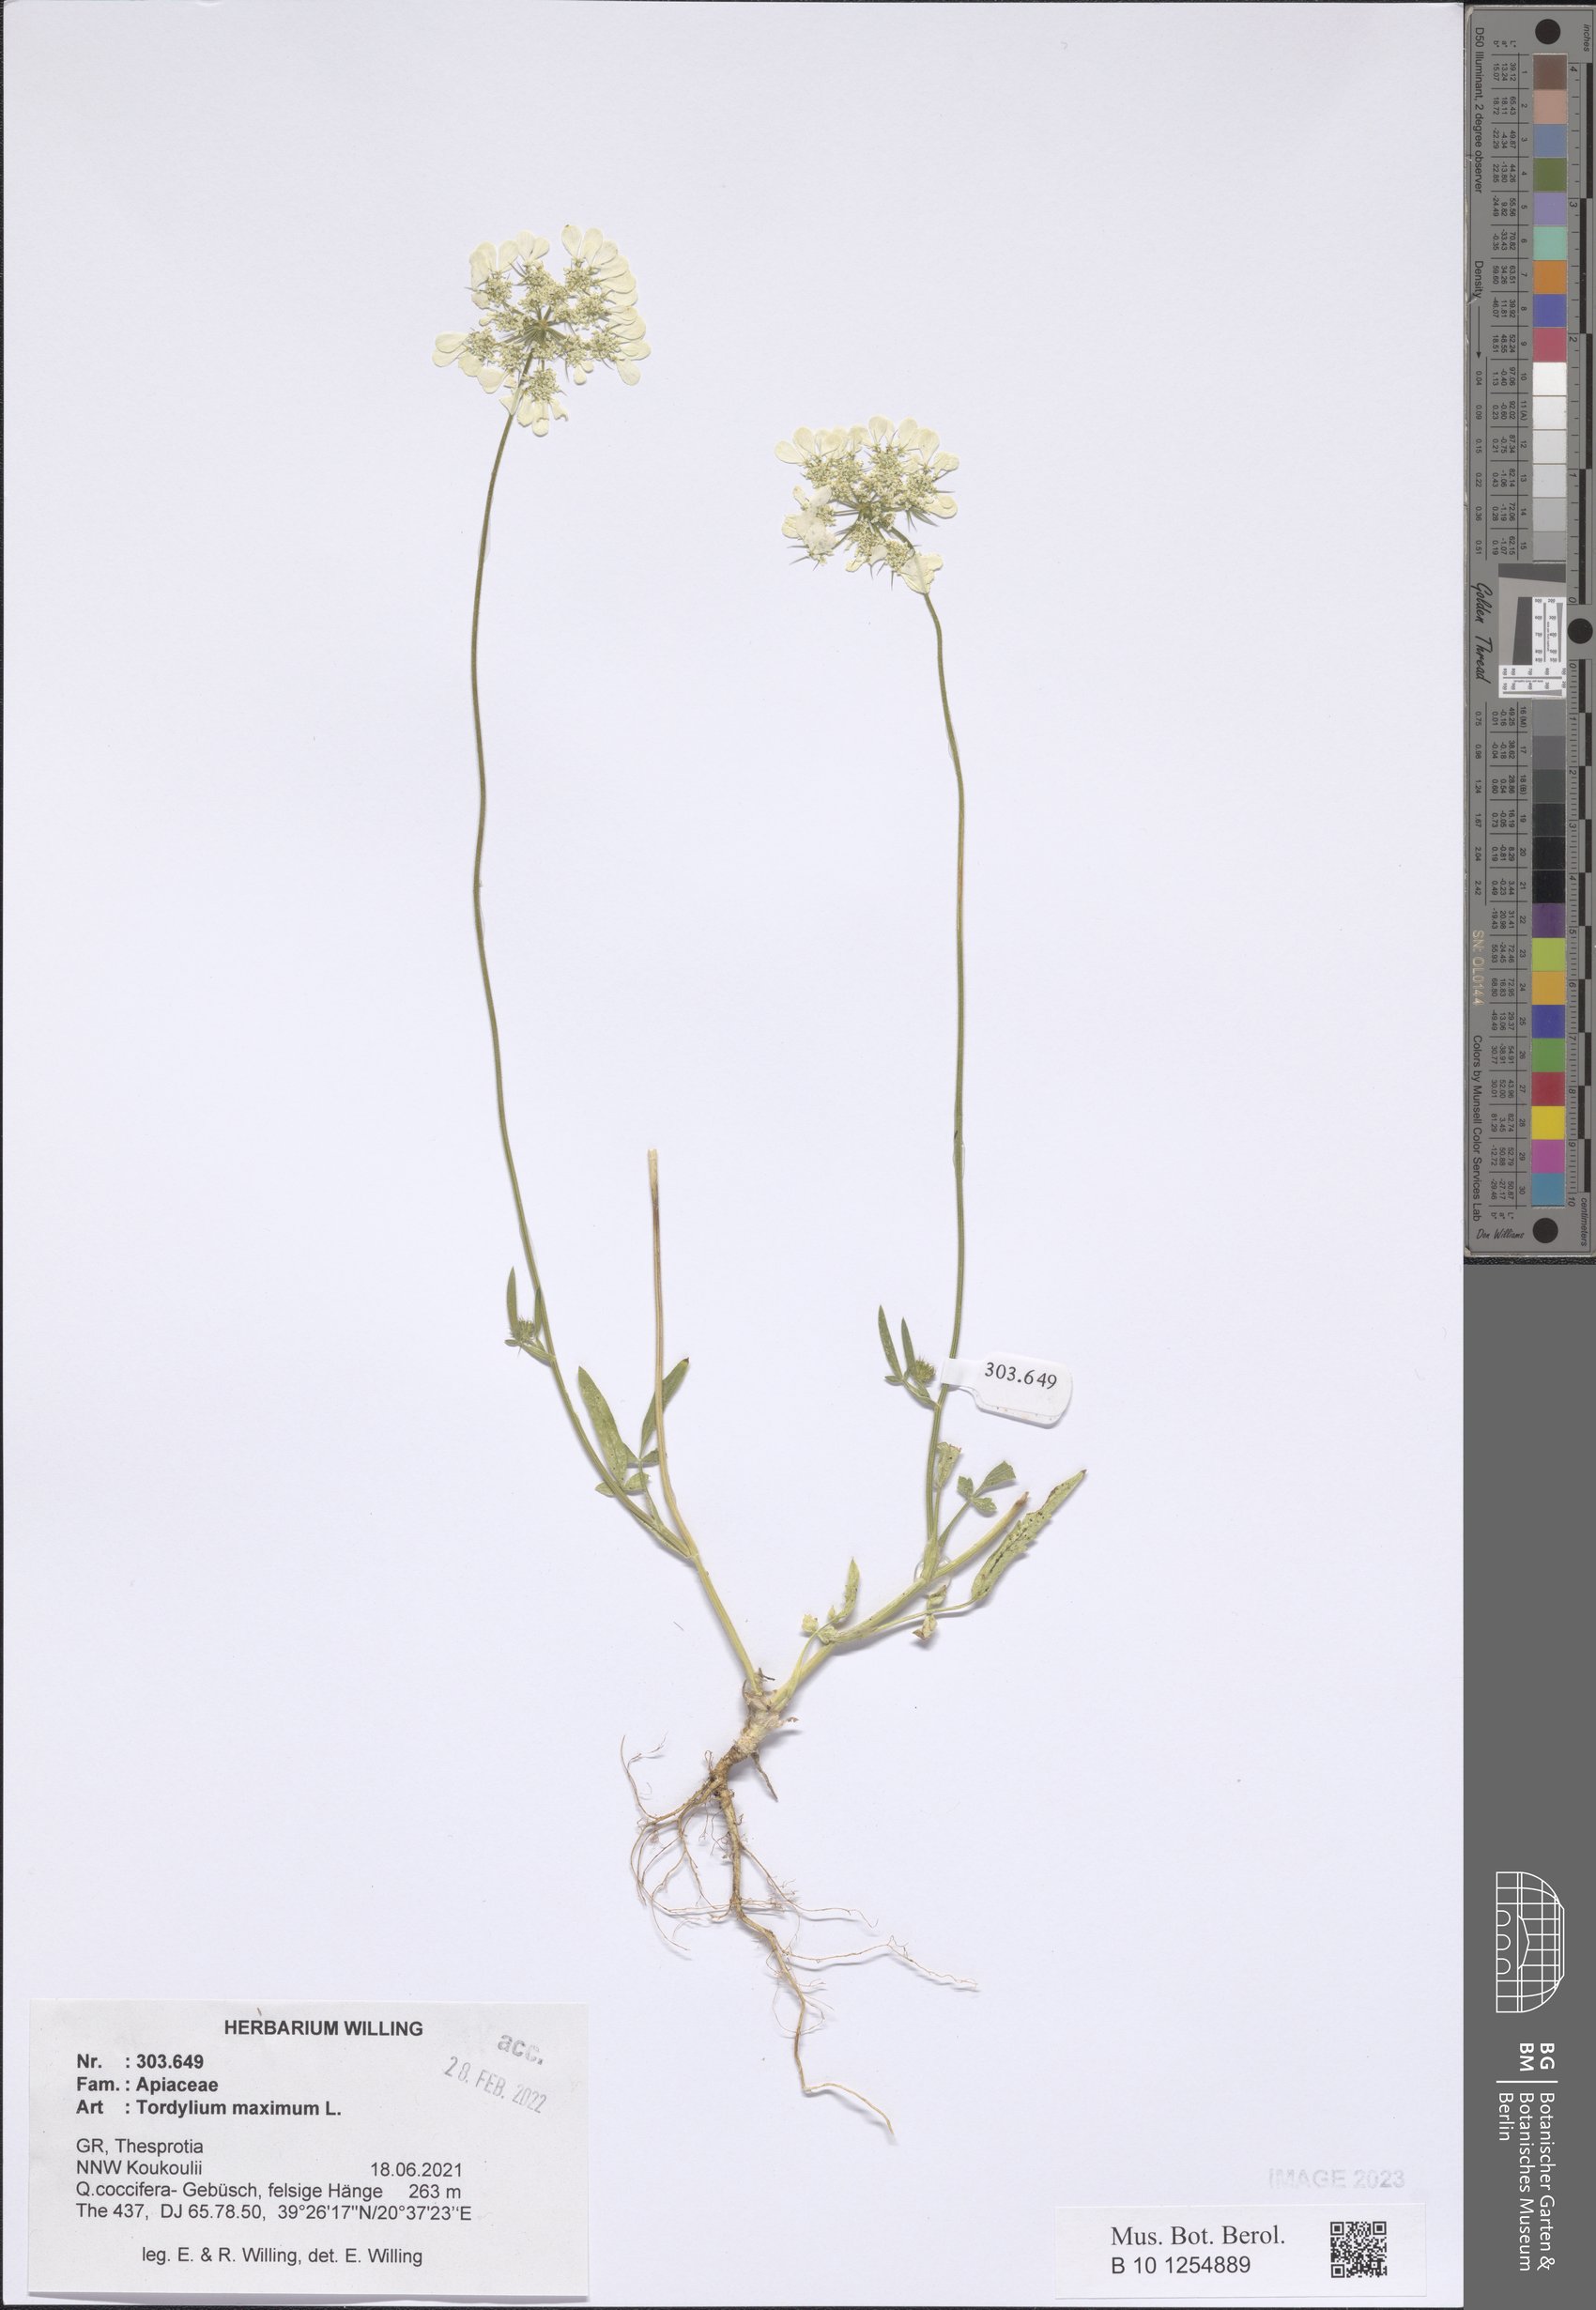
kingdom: Plantae
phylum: Tracheophyta
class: Magnoliopsida
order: Apiales
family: Apiaceae
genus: Tordylium
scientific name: Tordylium maximum
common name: Hartwort
